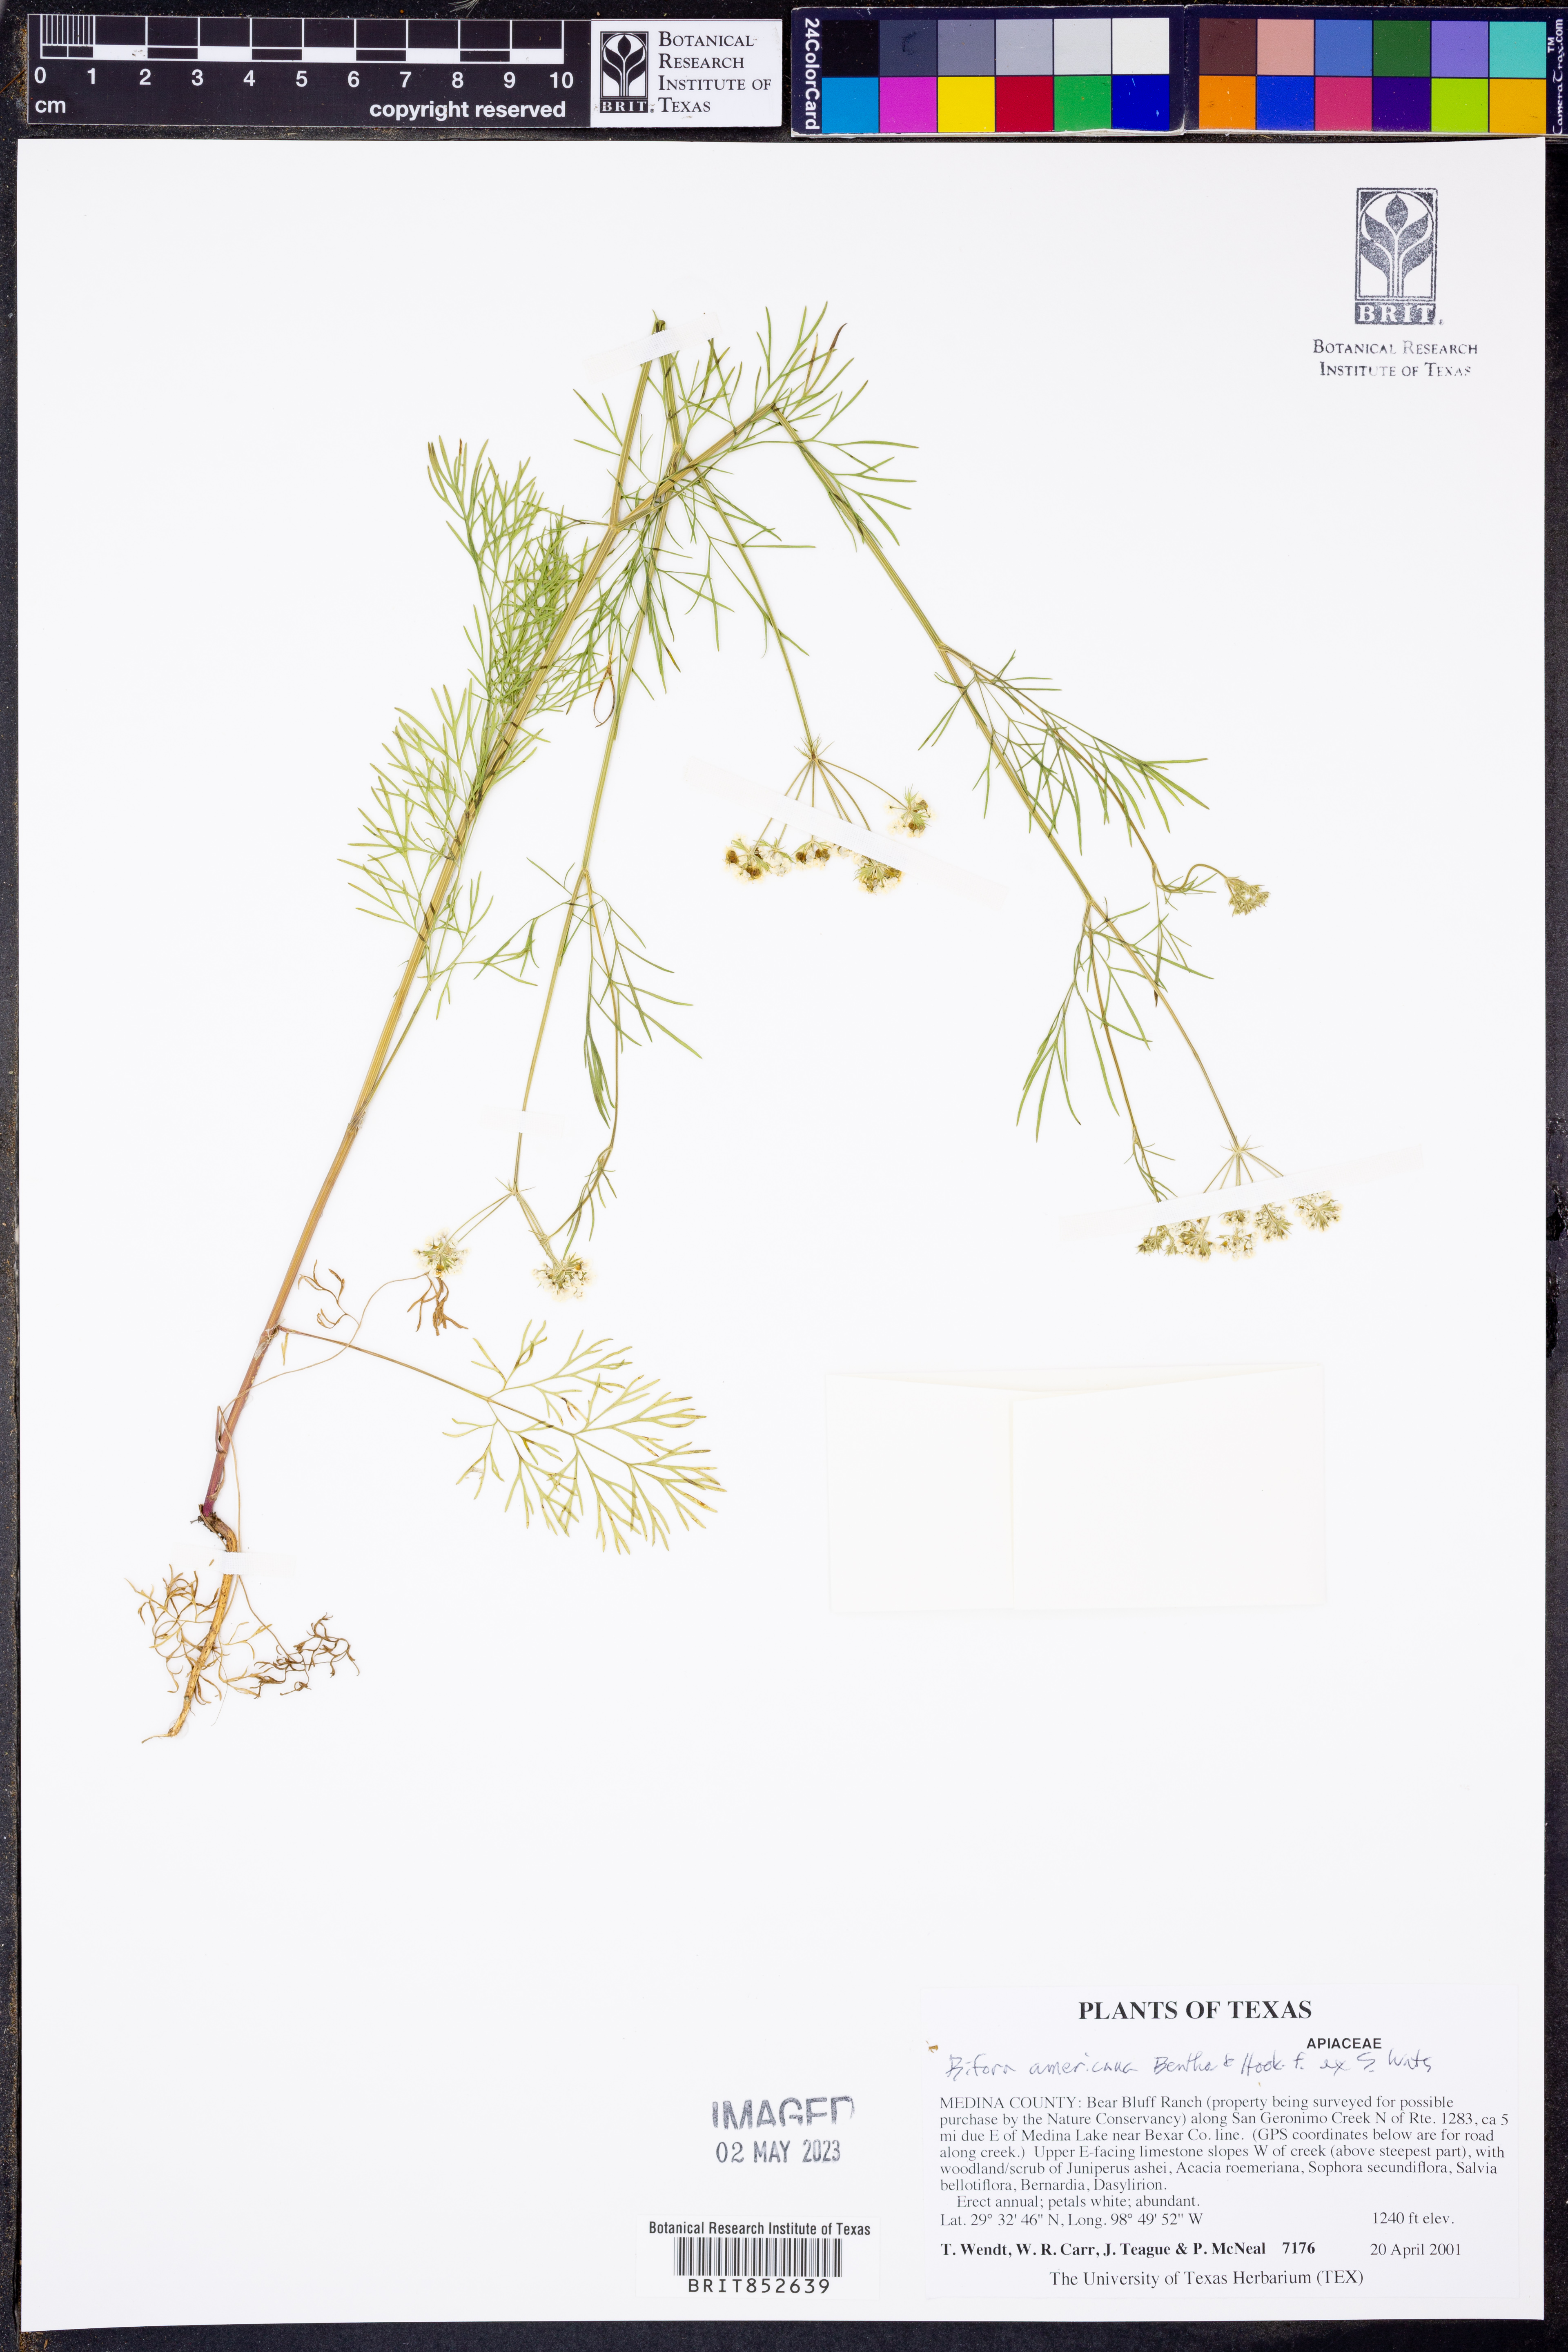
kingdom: Plantae
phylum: Tracheophyta
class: Magnoliopsida
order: Apiales
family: Apiaceae
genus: Atrema
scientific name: Atrema americanum
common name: Prairie-bishop
